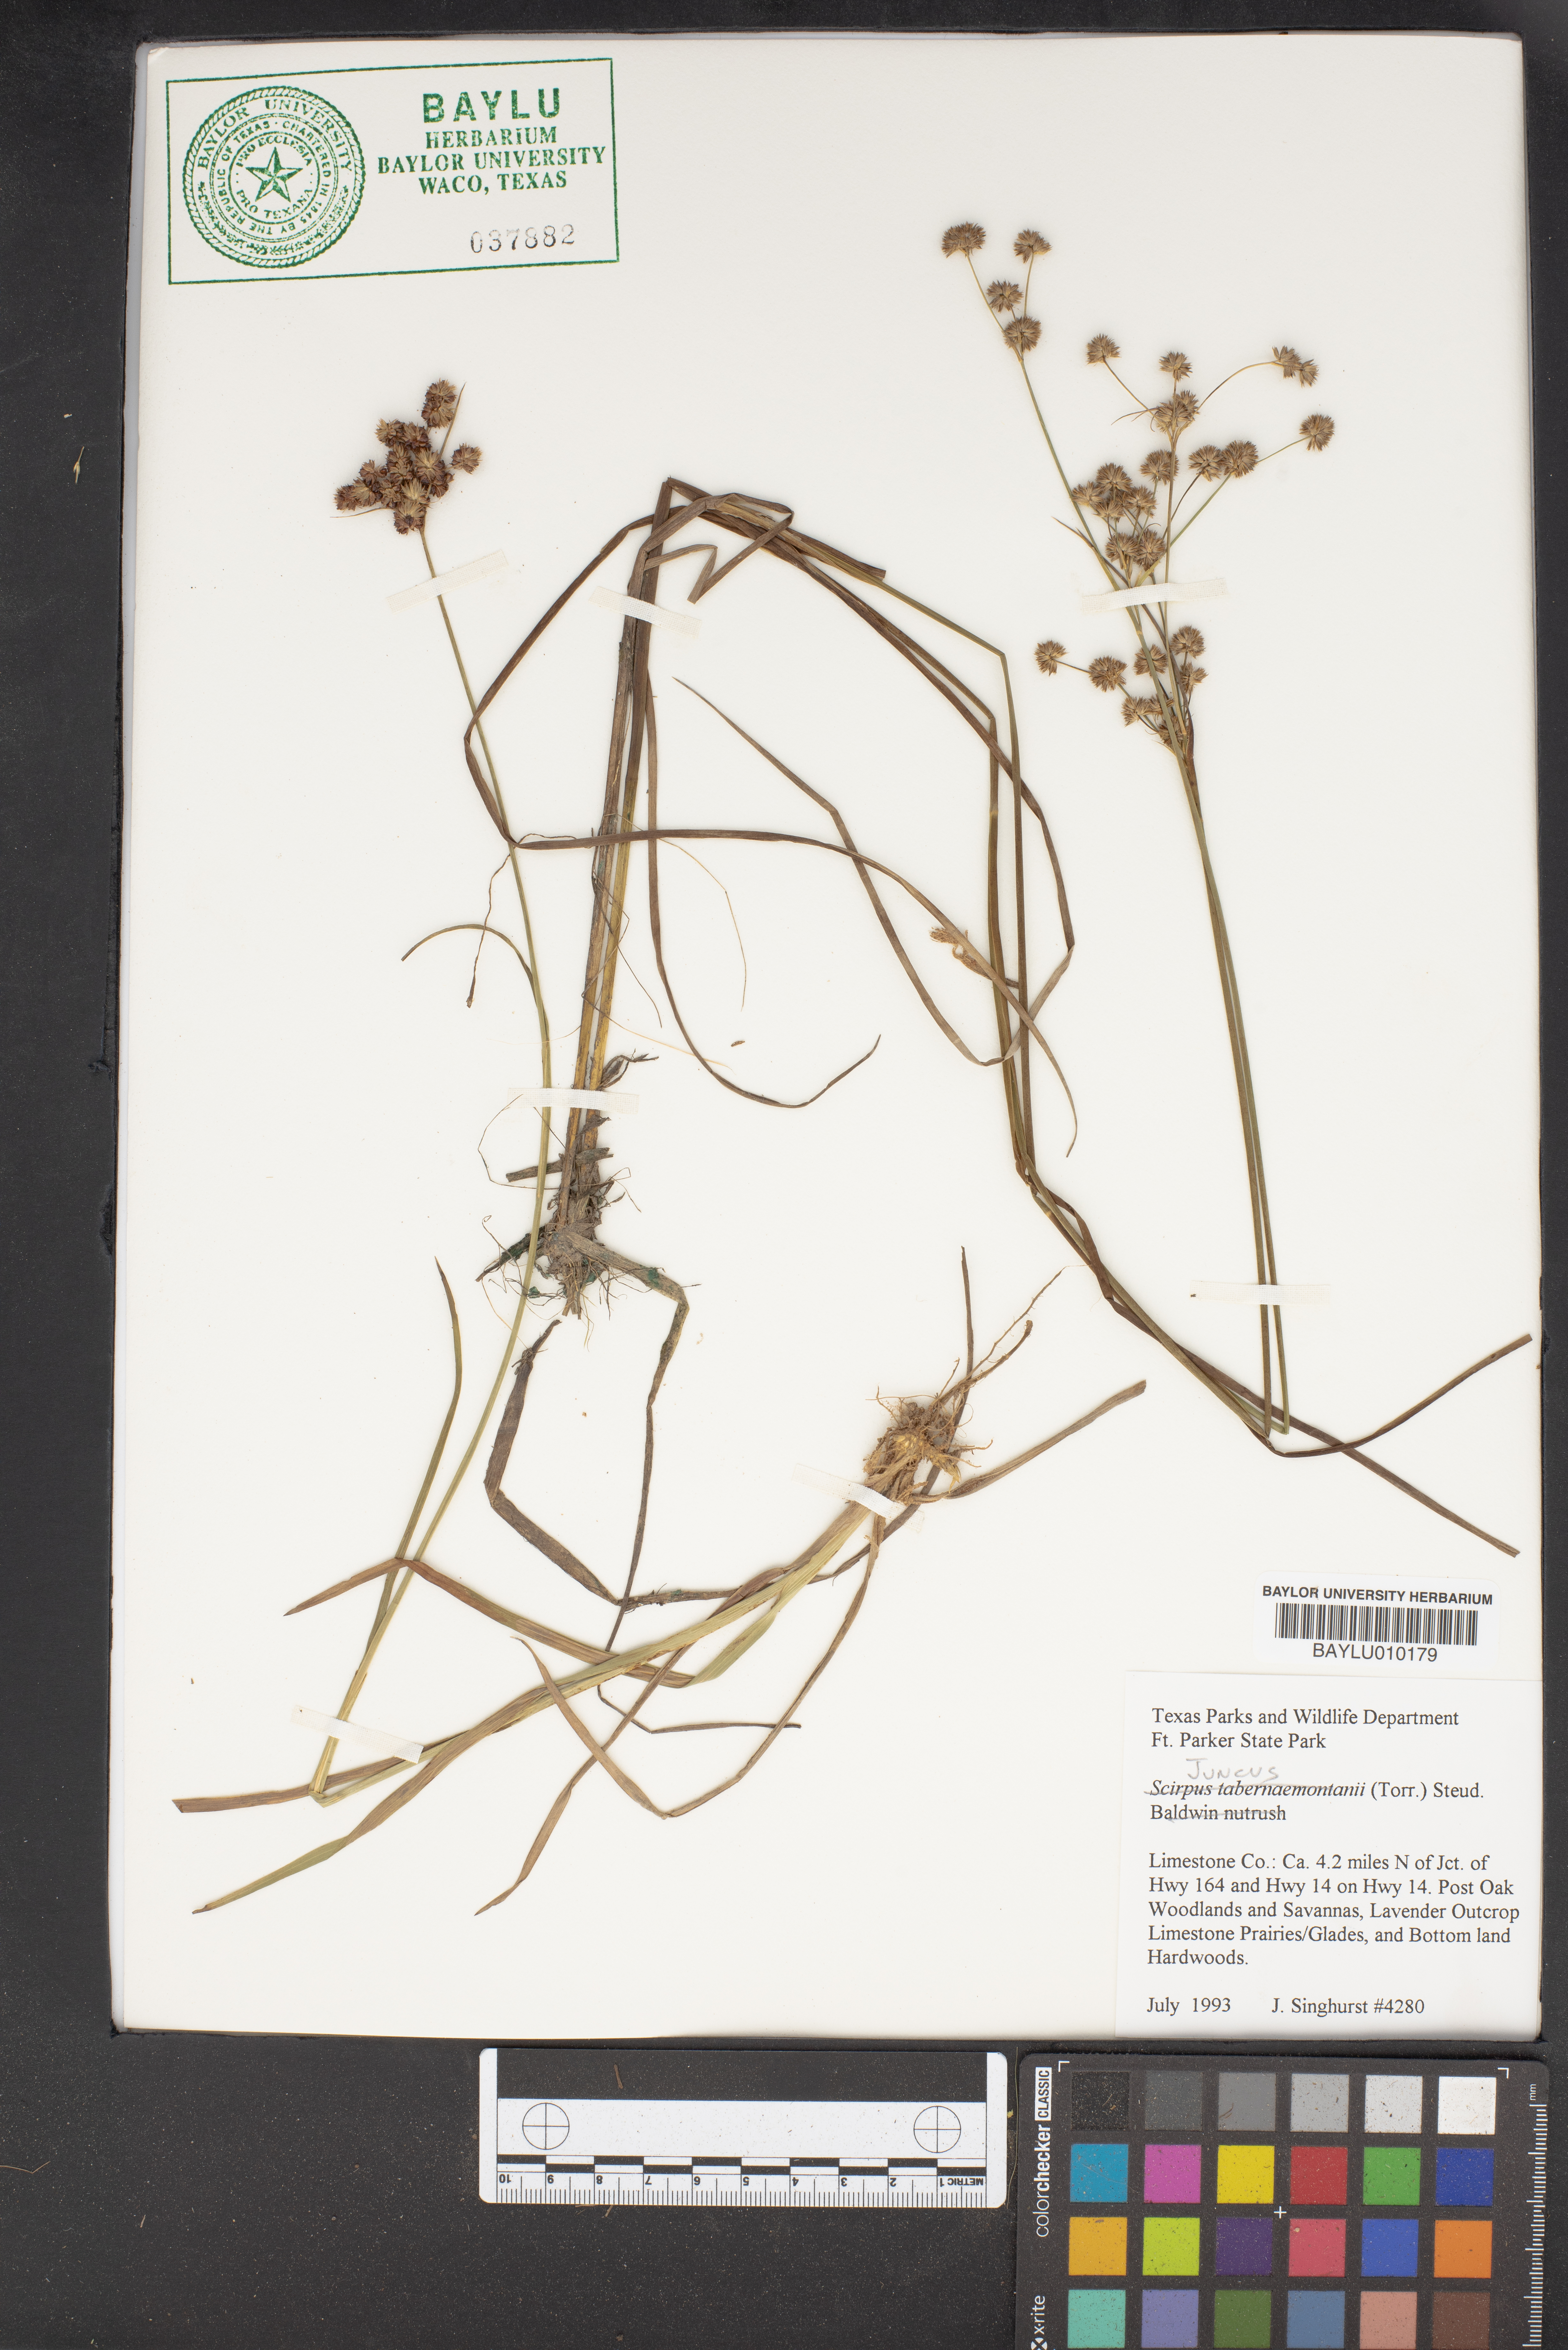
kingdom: Plantae
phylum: Tracheophyta
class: Liliopsida
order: Poales
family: Juncaceae
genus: Juncus
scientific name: Juncus
